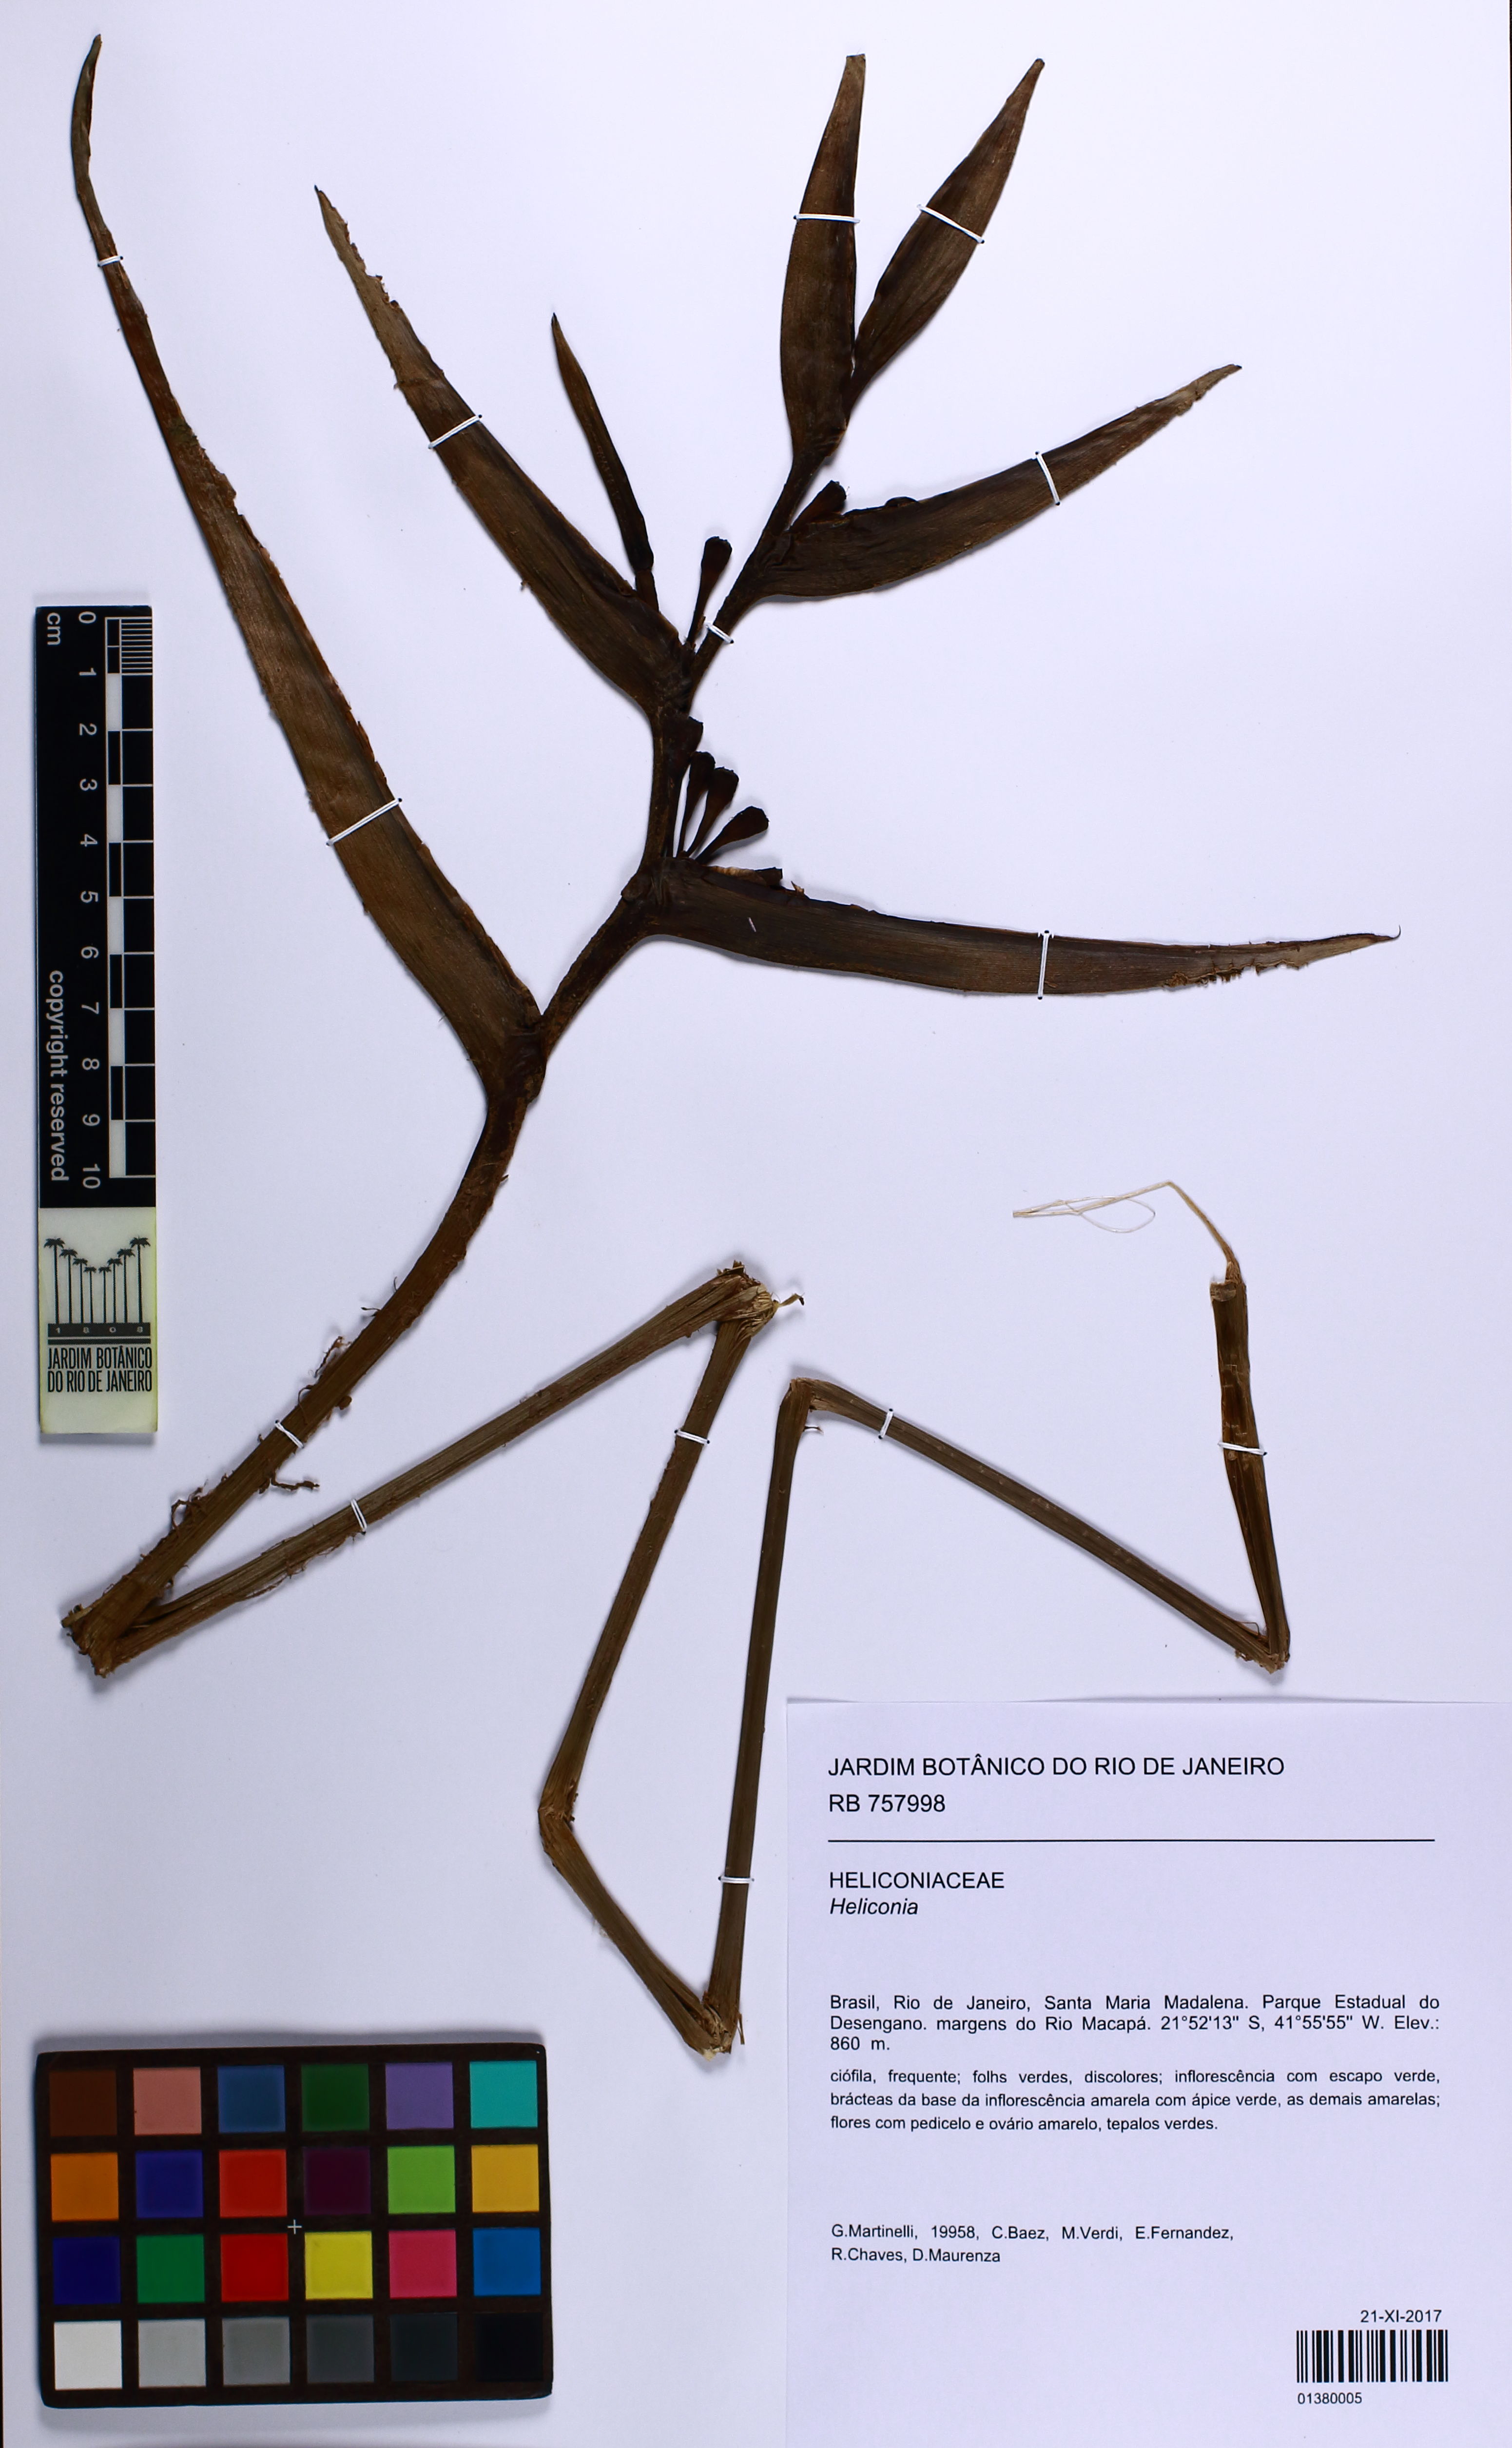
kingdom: Plantae
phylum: Tracheophyta
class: Liliopsida
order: Zingiberales
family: Heliconiaceae
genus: Heliconia
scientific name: Heliconia
